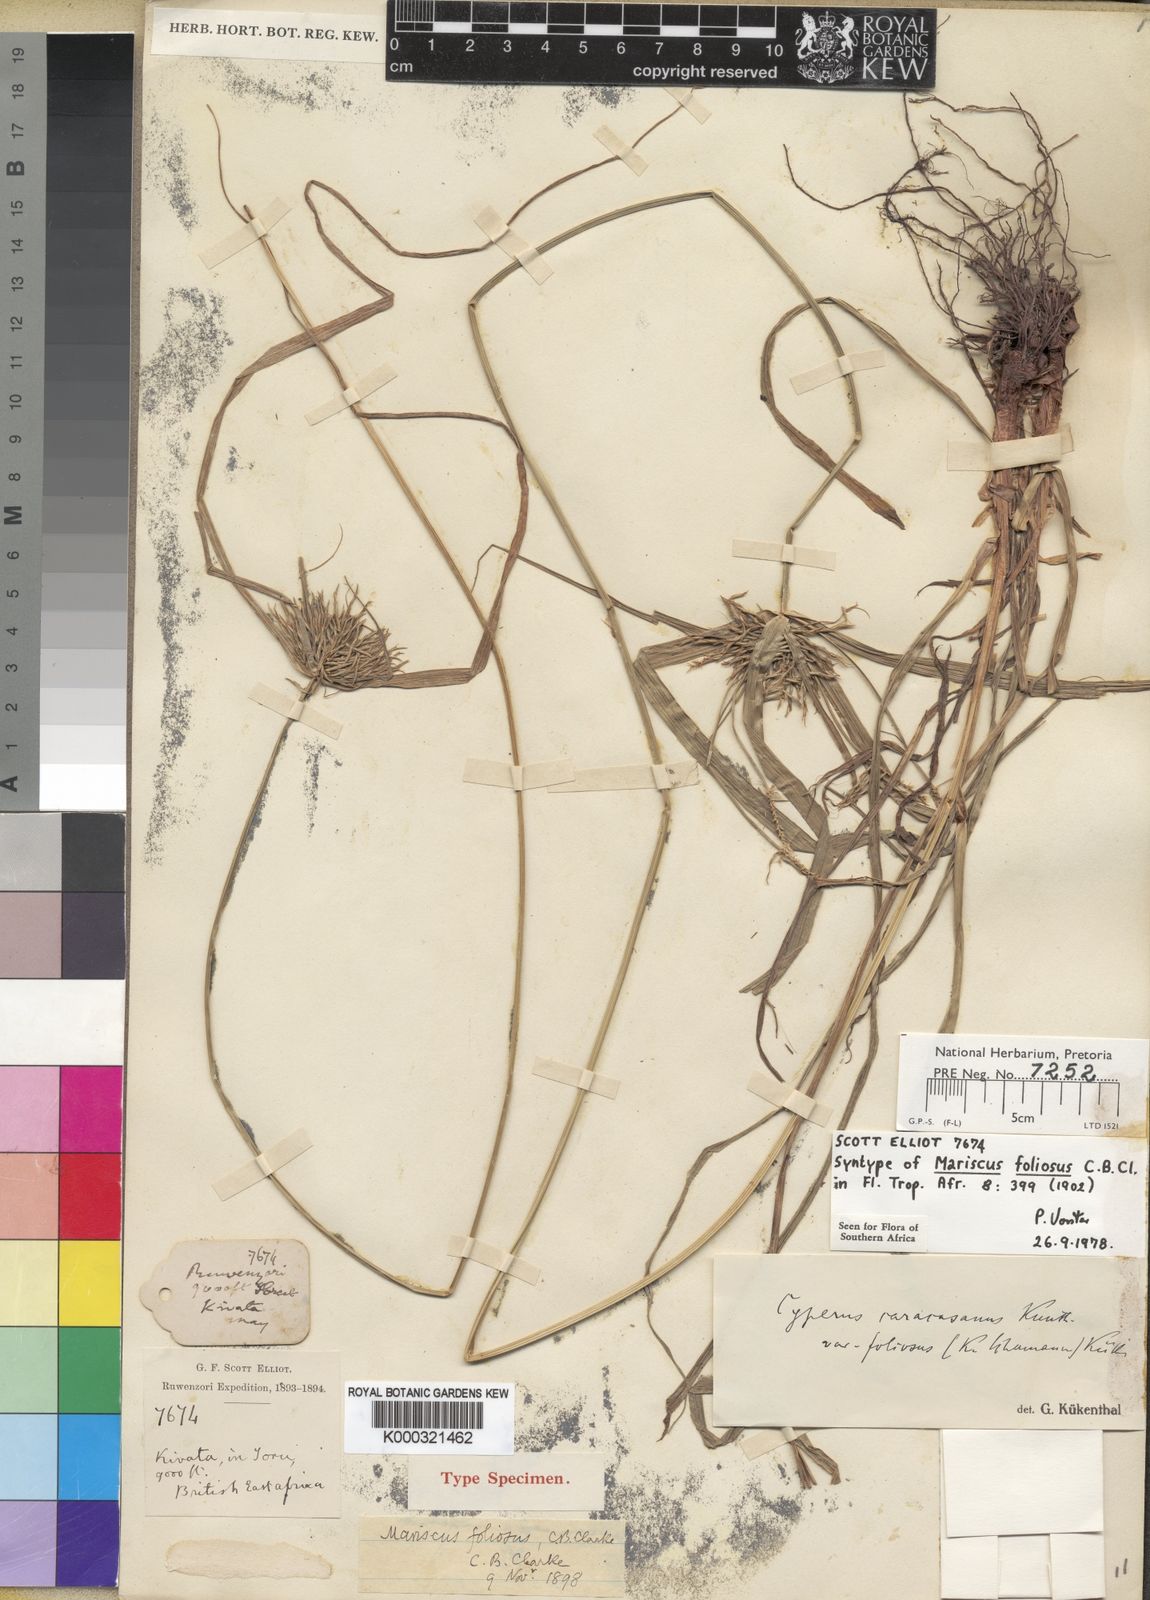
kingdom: Plantae
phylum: Tracheophyta
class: Liliopsida
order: Poales
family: Cyperaceae
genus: Cyperus
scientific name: Cyperus distans
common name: Slender cyperus
